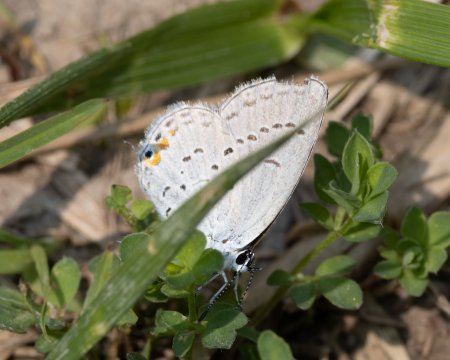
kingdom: Animalia
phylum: Arthropoda
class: Insecta
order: Lepidoptera
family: Lycaenidae
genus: Elkalyce
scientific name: Elkalyce comyntas
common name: Eastern Tailed-Blue
